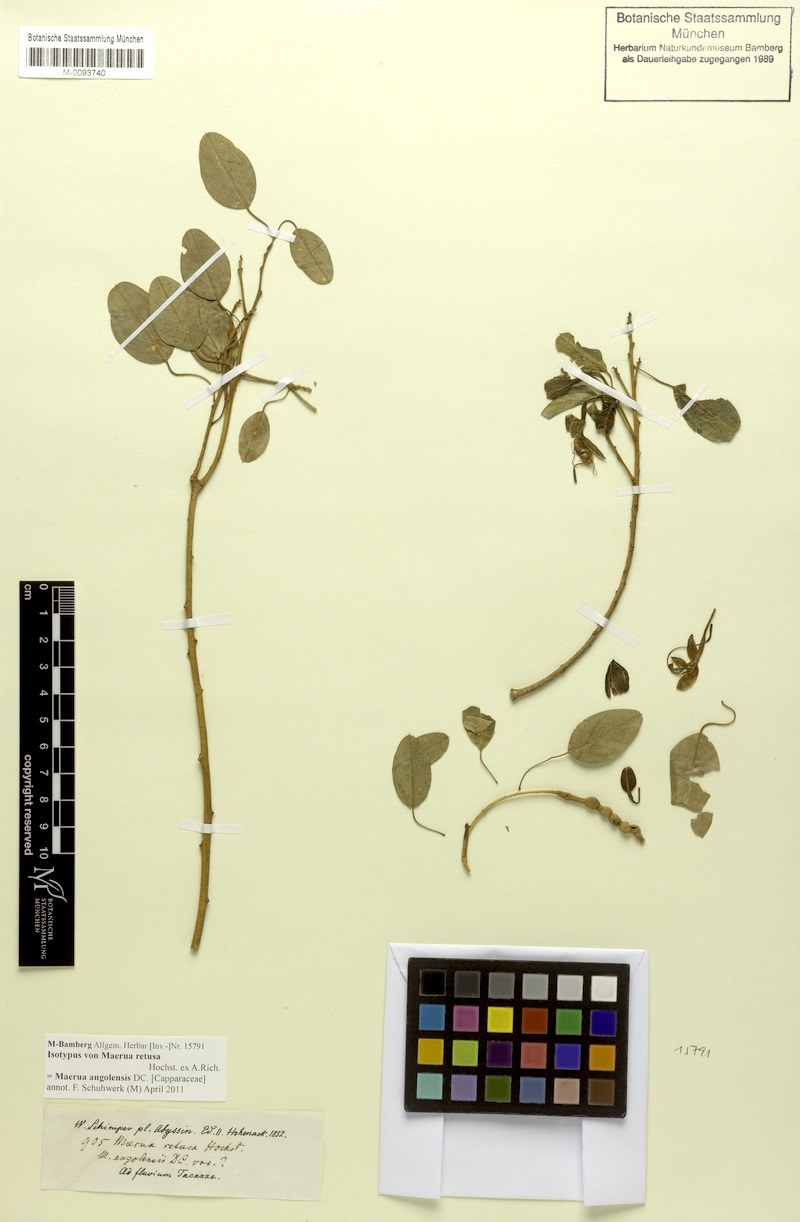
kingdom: Plantae
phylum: Tracheophyta
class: Magnoliopsida
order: Brassicales
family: Capparaceae
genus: Maerua
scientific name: Maerua angolensis
